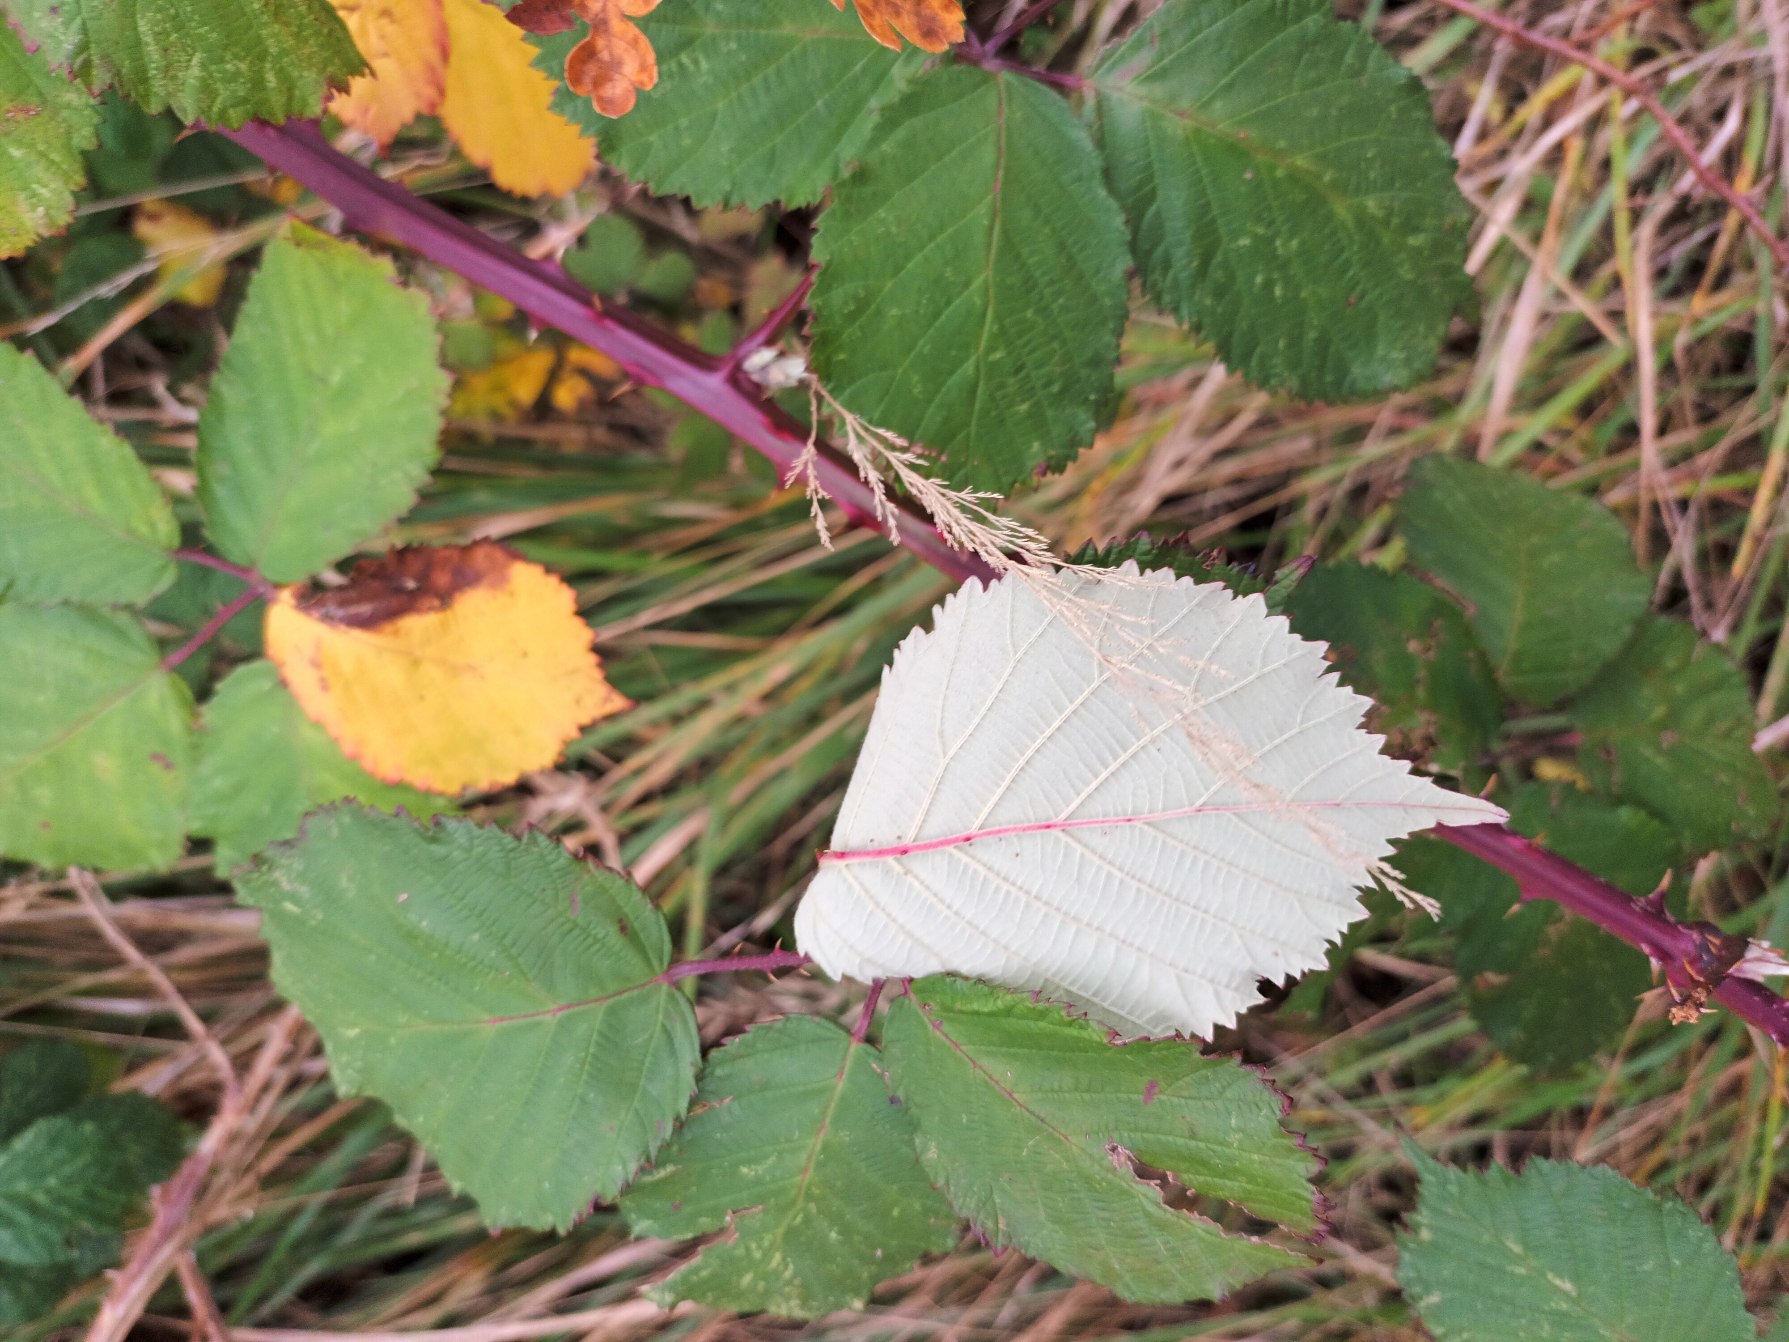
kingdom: Plantae
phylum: Tracheophyta
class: Magnoliopsida
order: Rosales
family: Rosaceae
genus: Rubus
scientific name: Rubus armeniacus
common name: Armensk brombær
